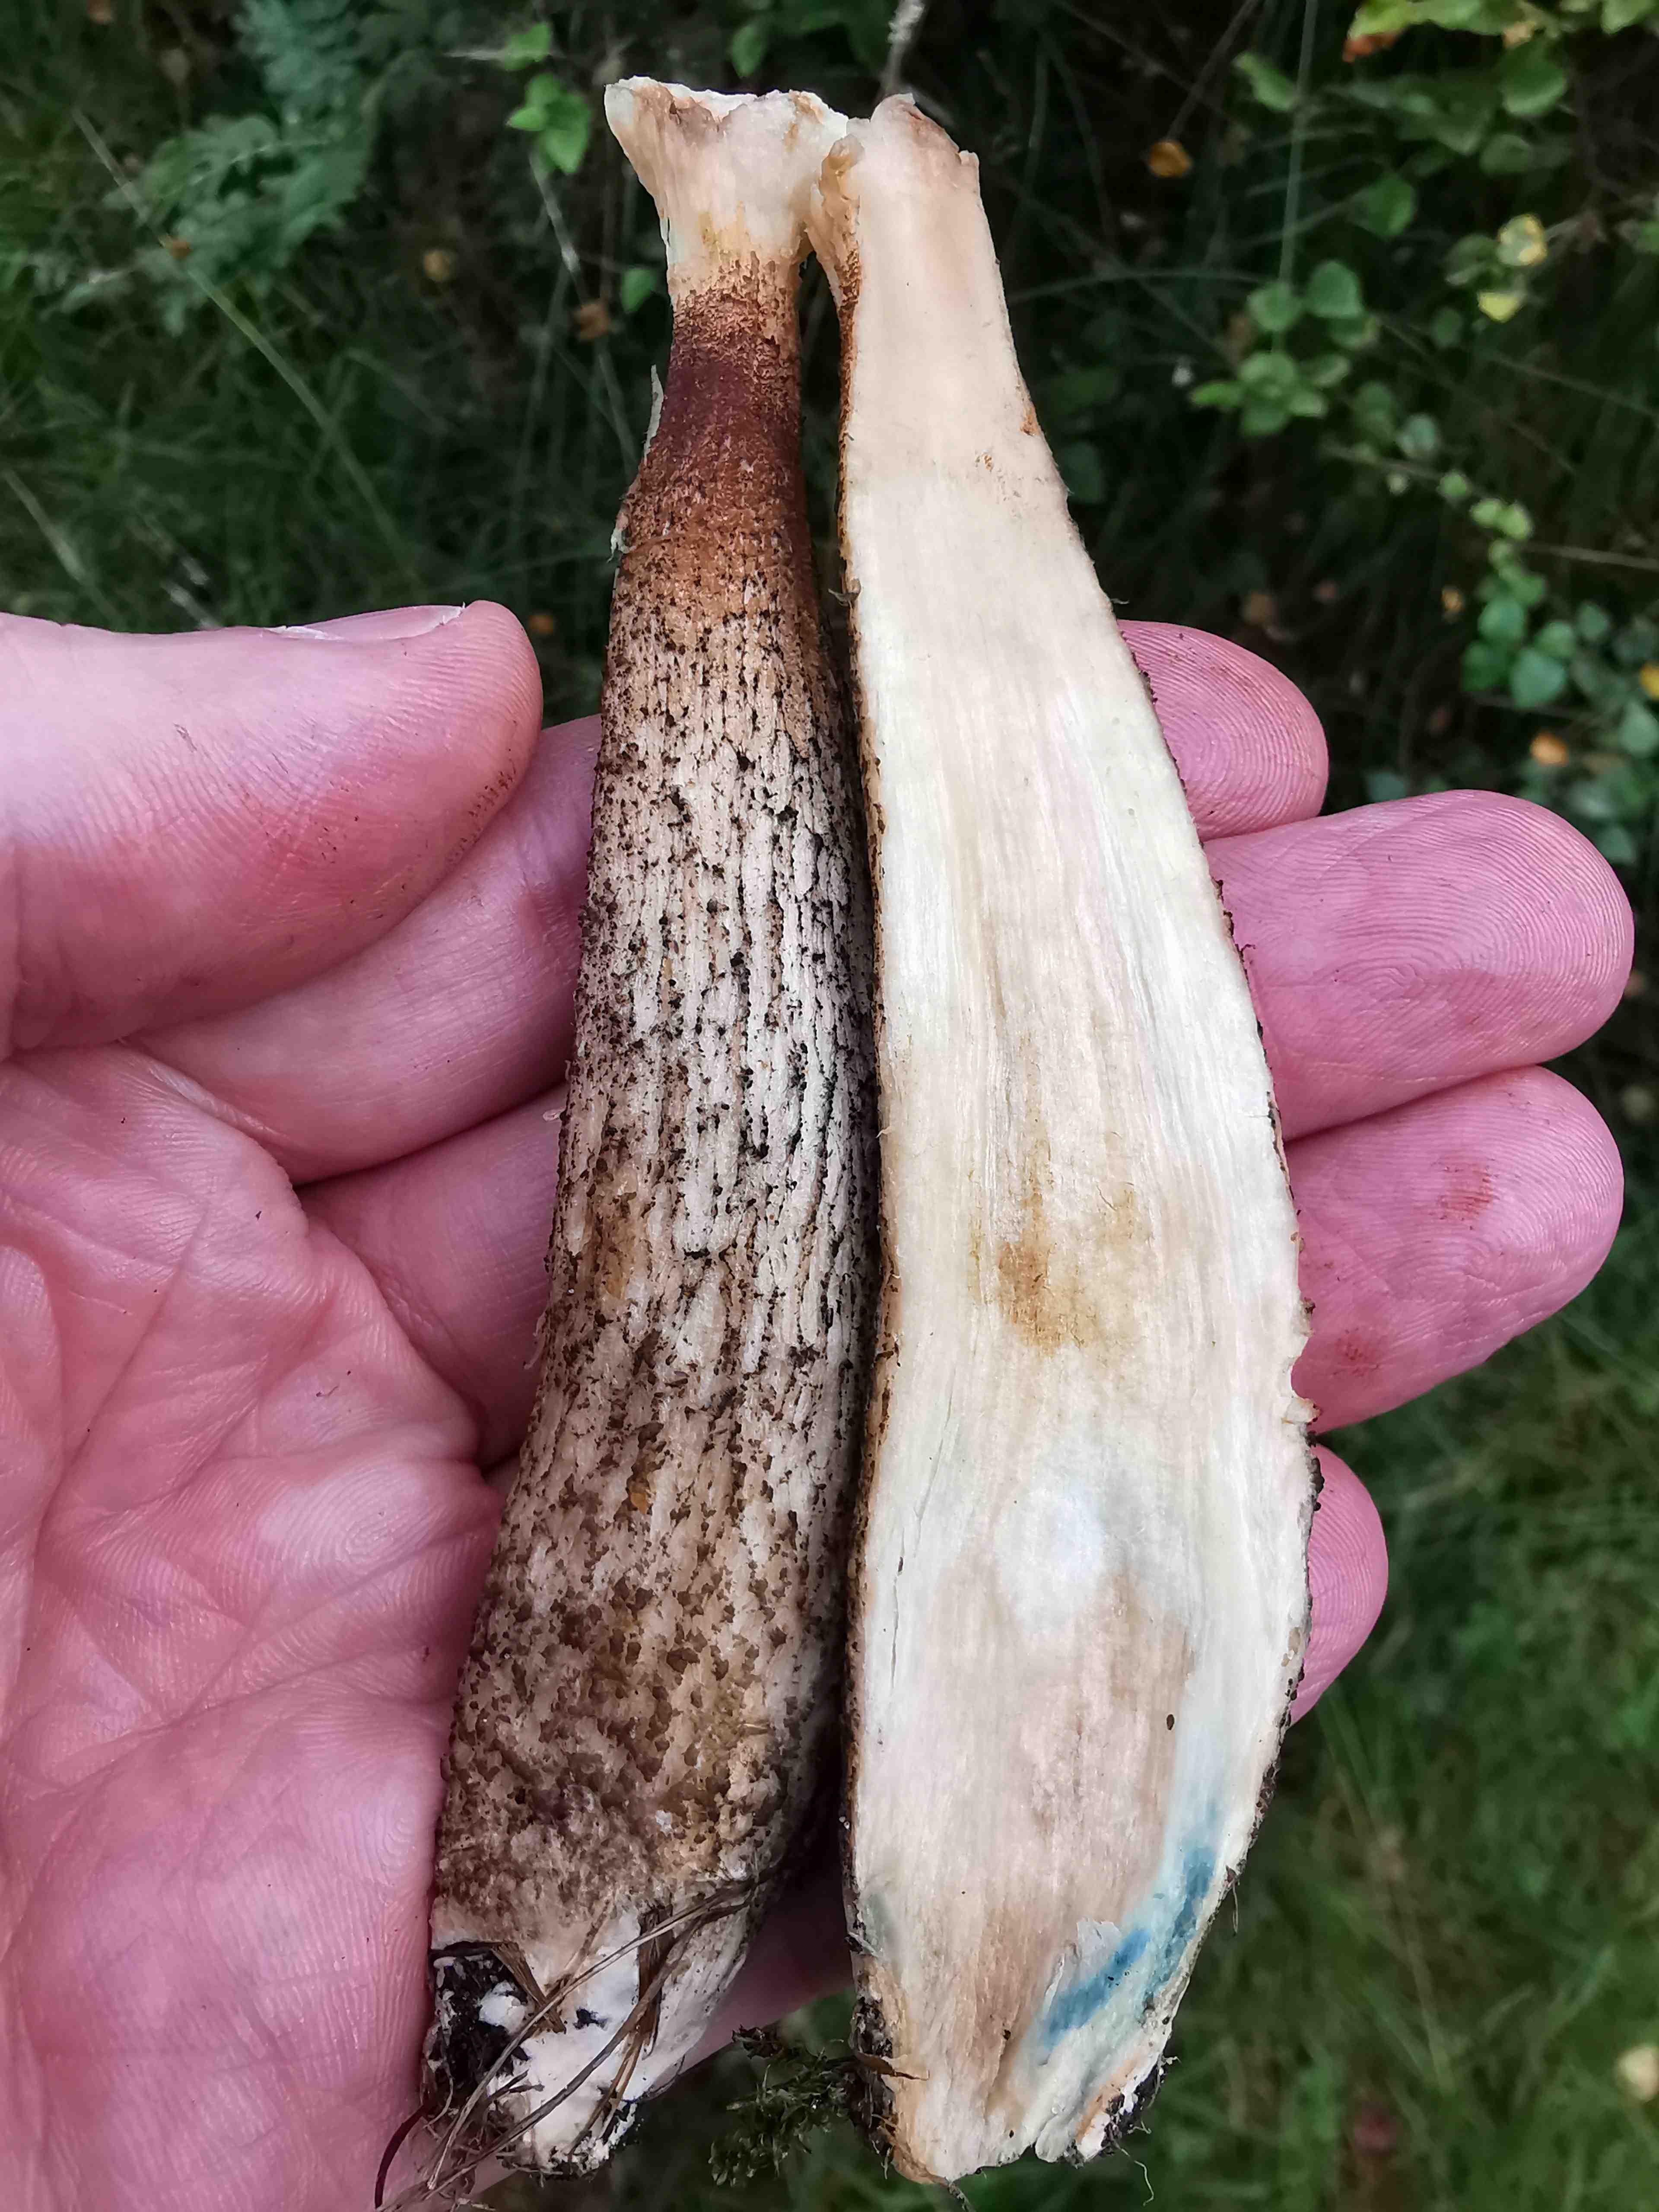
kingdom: Fungi
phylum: Basidiomycota
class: Agaricomycetes
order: Boletales
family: Boletaceae
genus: Leccinum
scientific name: Leccinum
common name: skælrørhat
